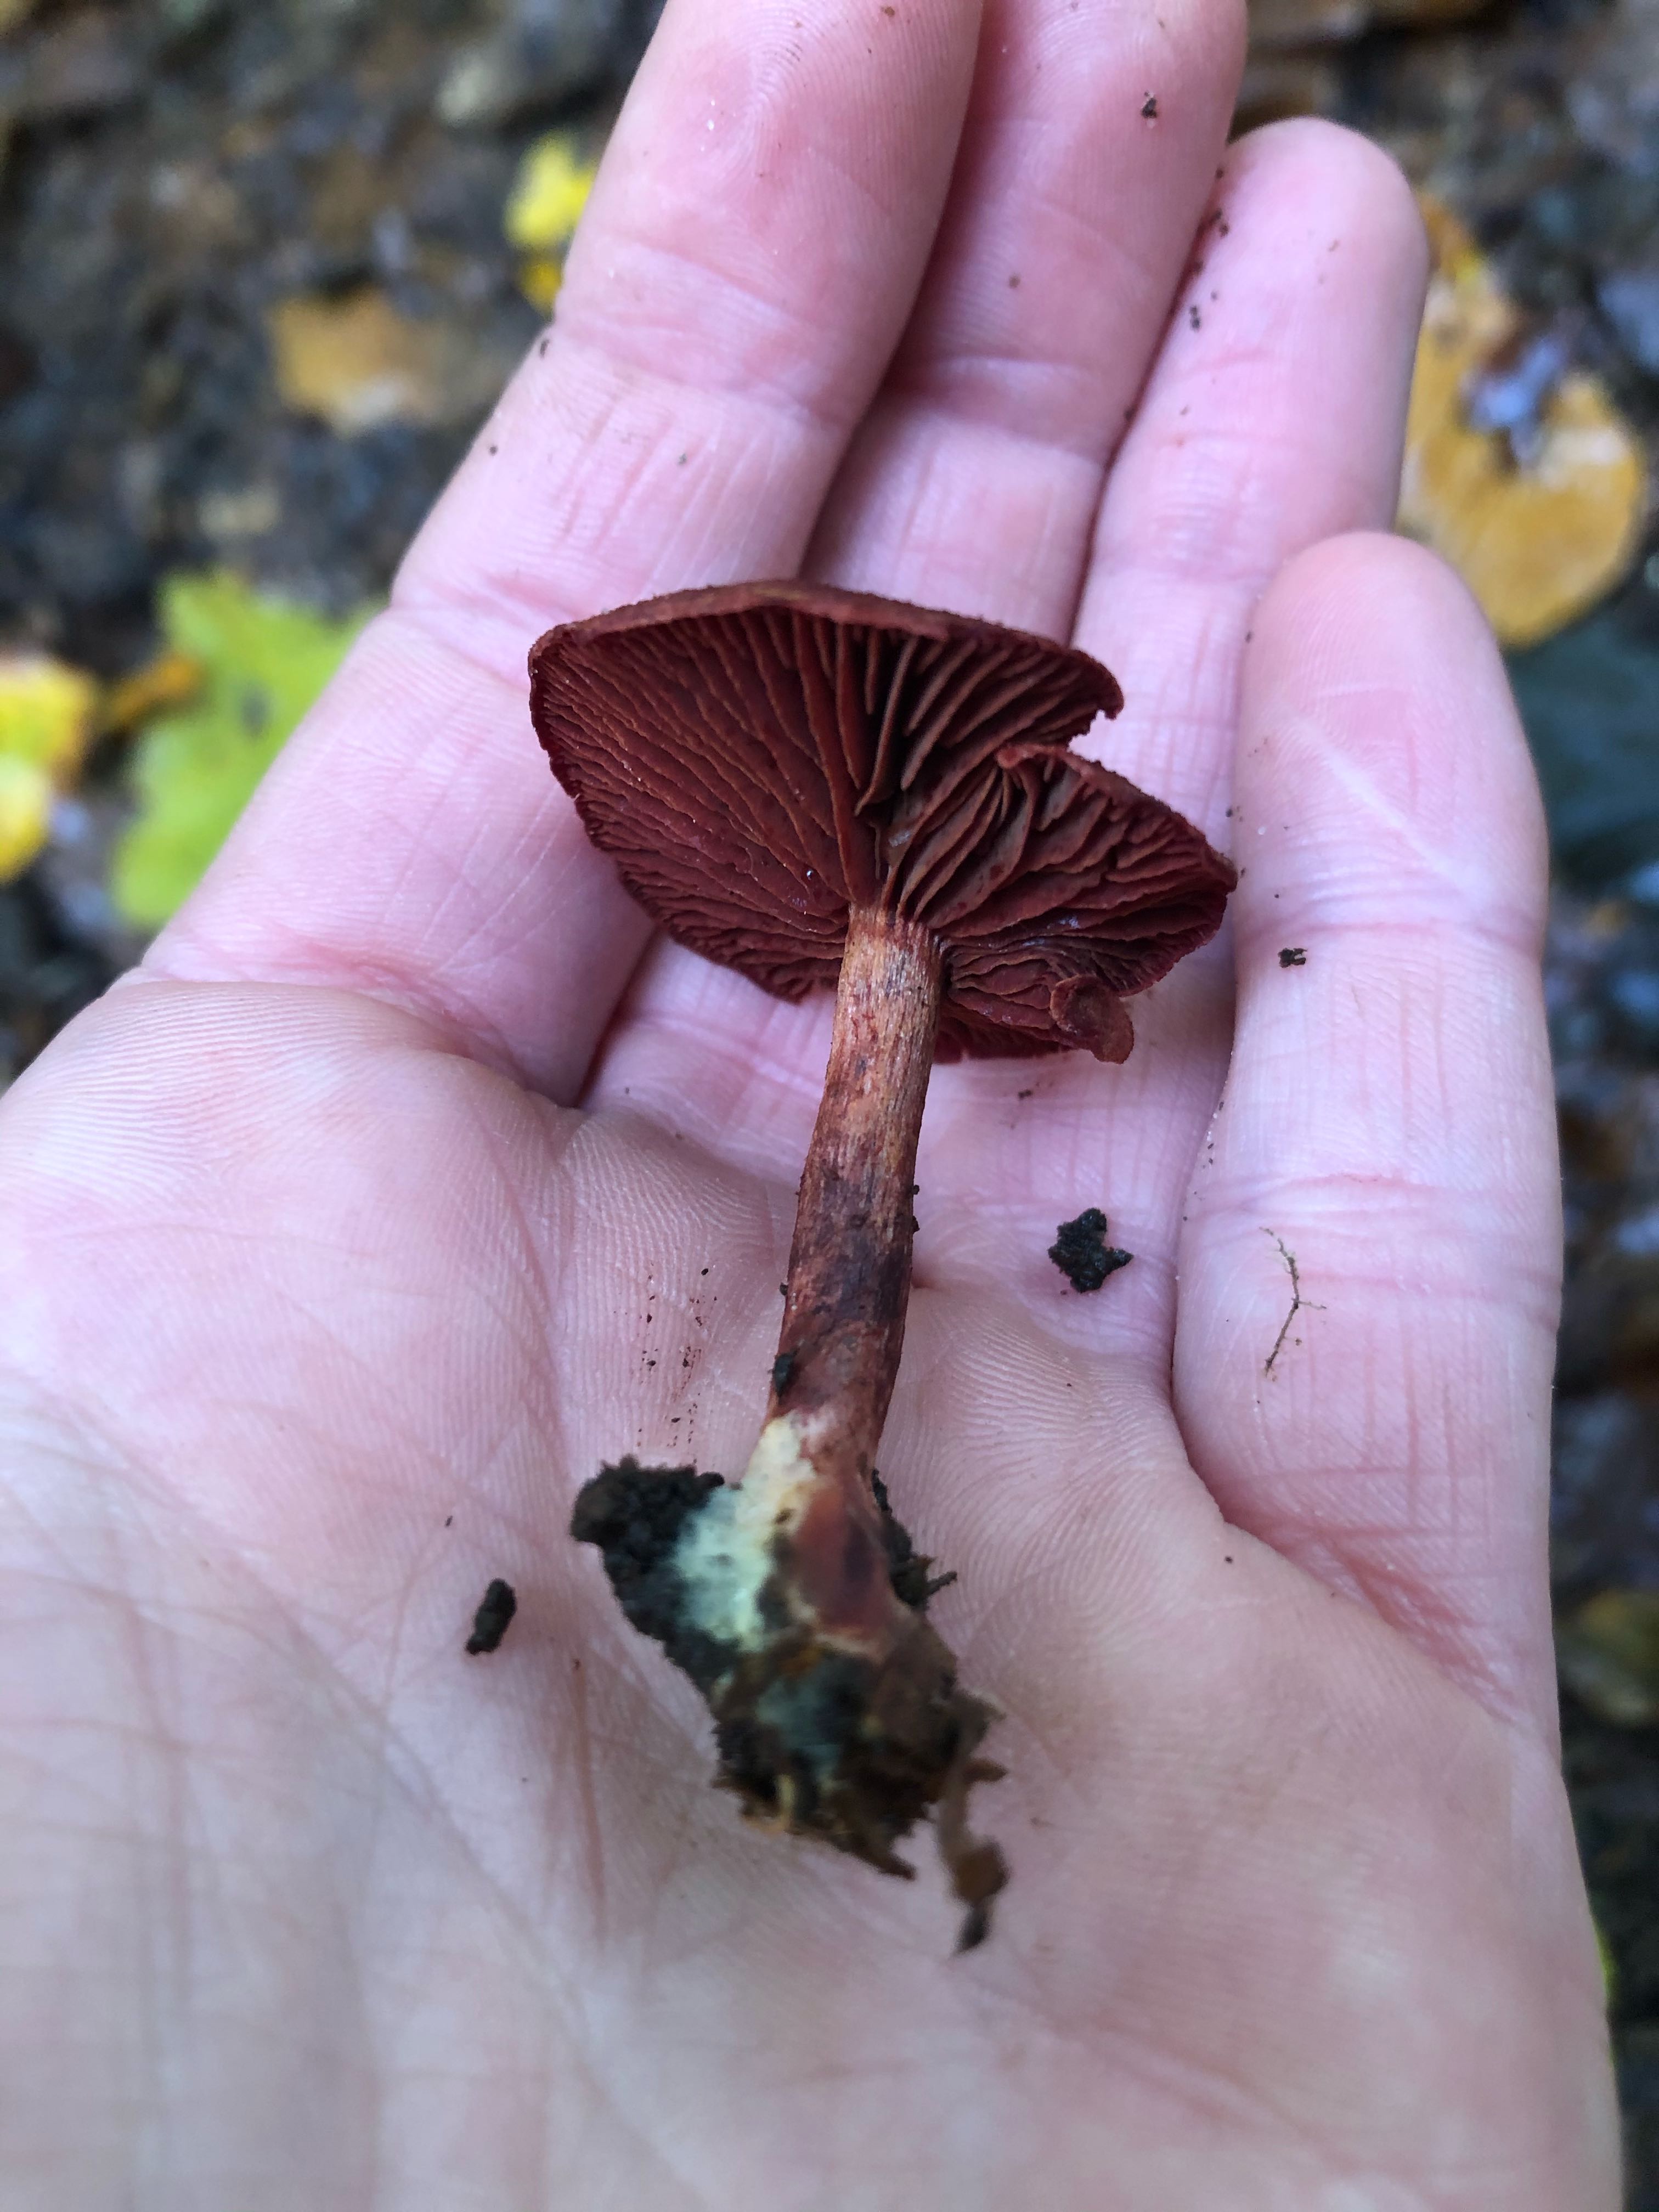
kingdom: Fungi
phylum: Basidiomycota
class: Agaricomycetes
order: Agaricales
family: Cortinariaceae
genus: Cortinarius
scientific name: Cortinarius sanguineus
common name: Bloodred webcap
